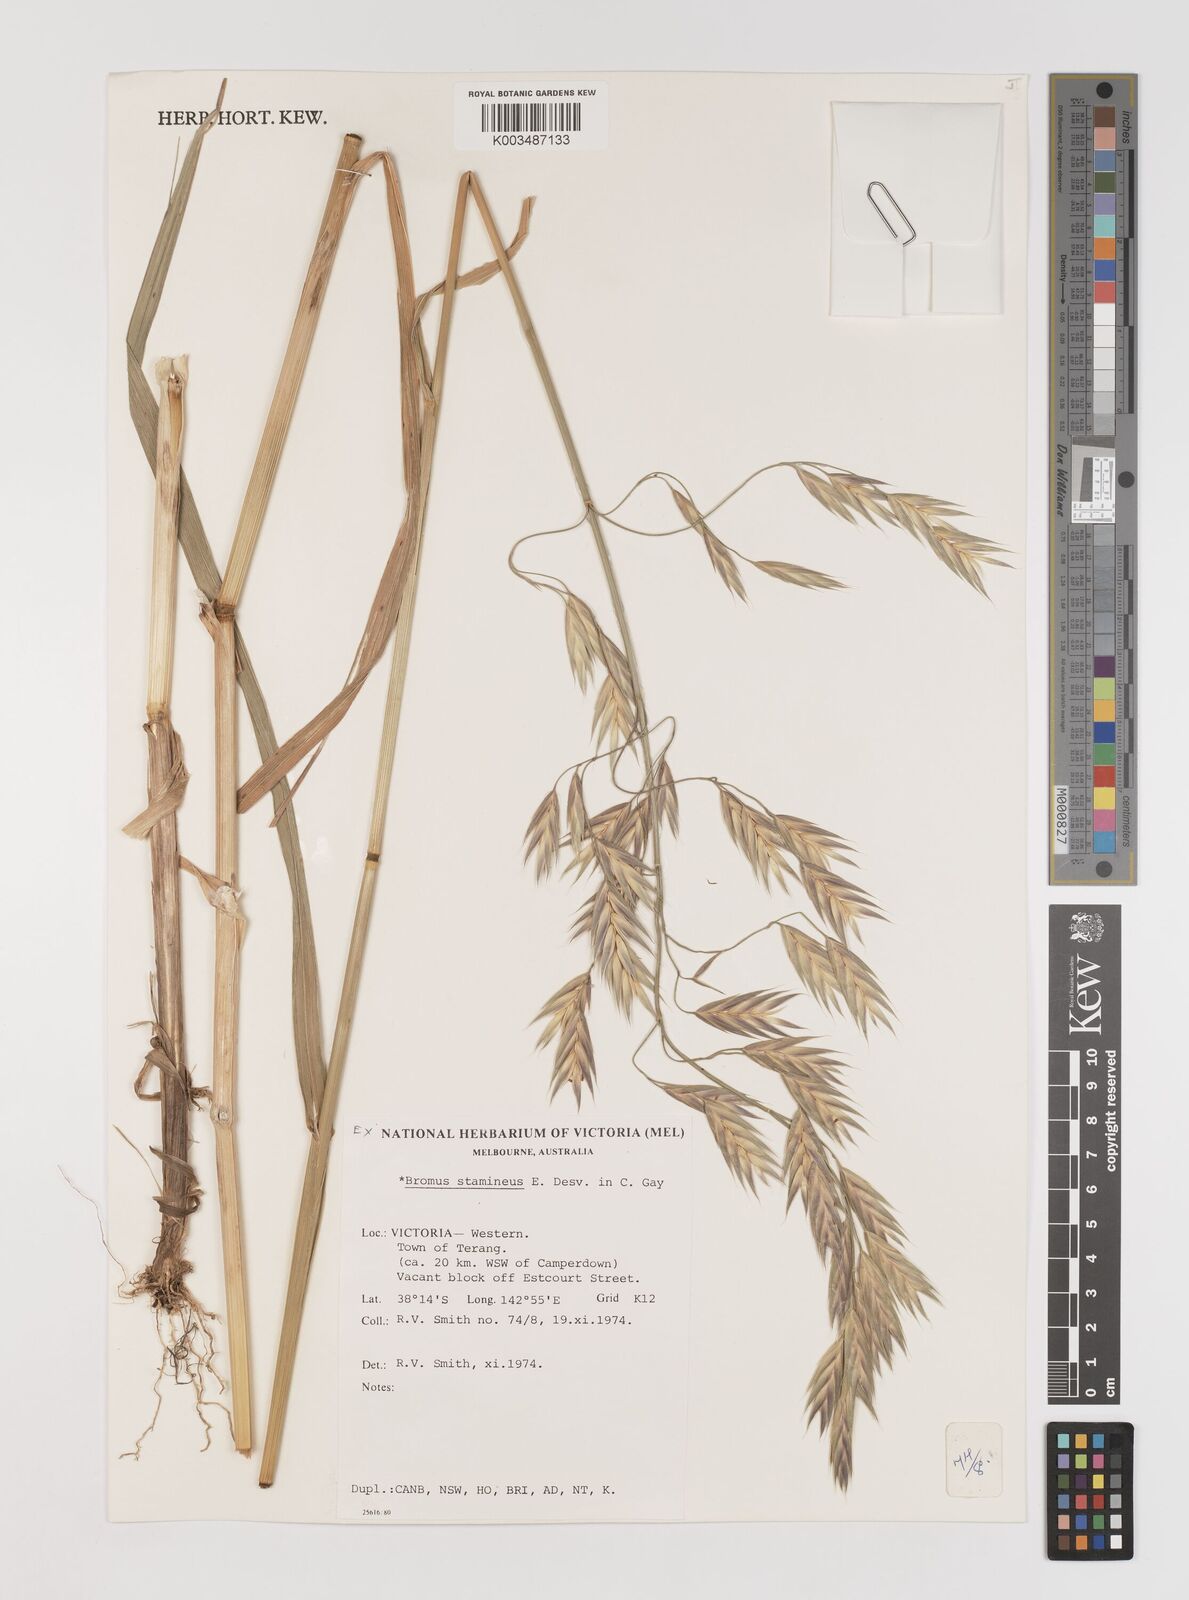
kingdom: Plantae
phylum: Tracheophyta
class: Liliopsida
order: Poales
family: Poaceae
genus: Bromus
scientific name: Bromus cebadilla
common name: Southern brome
